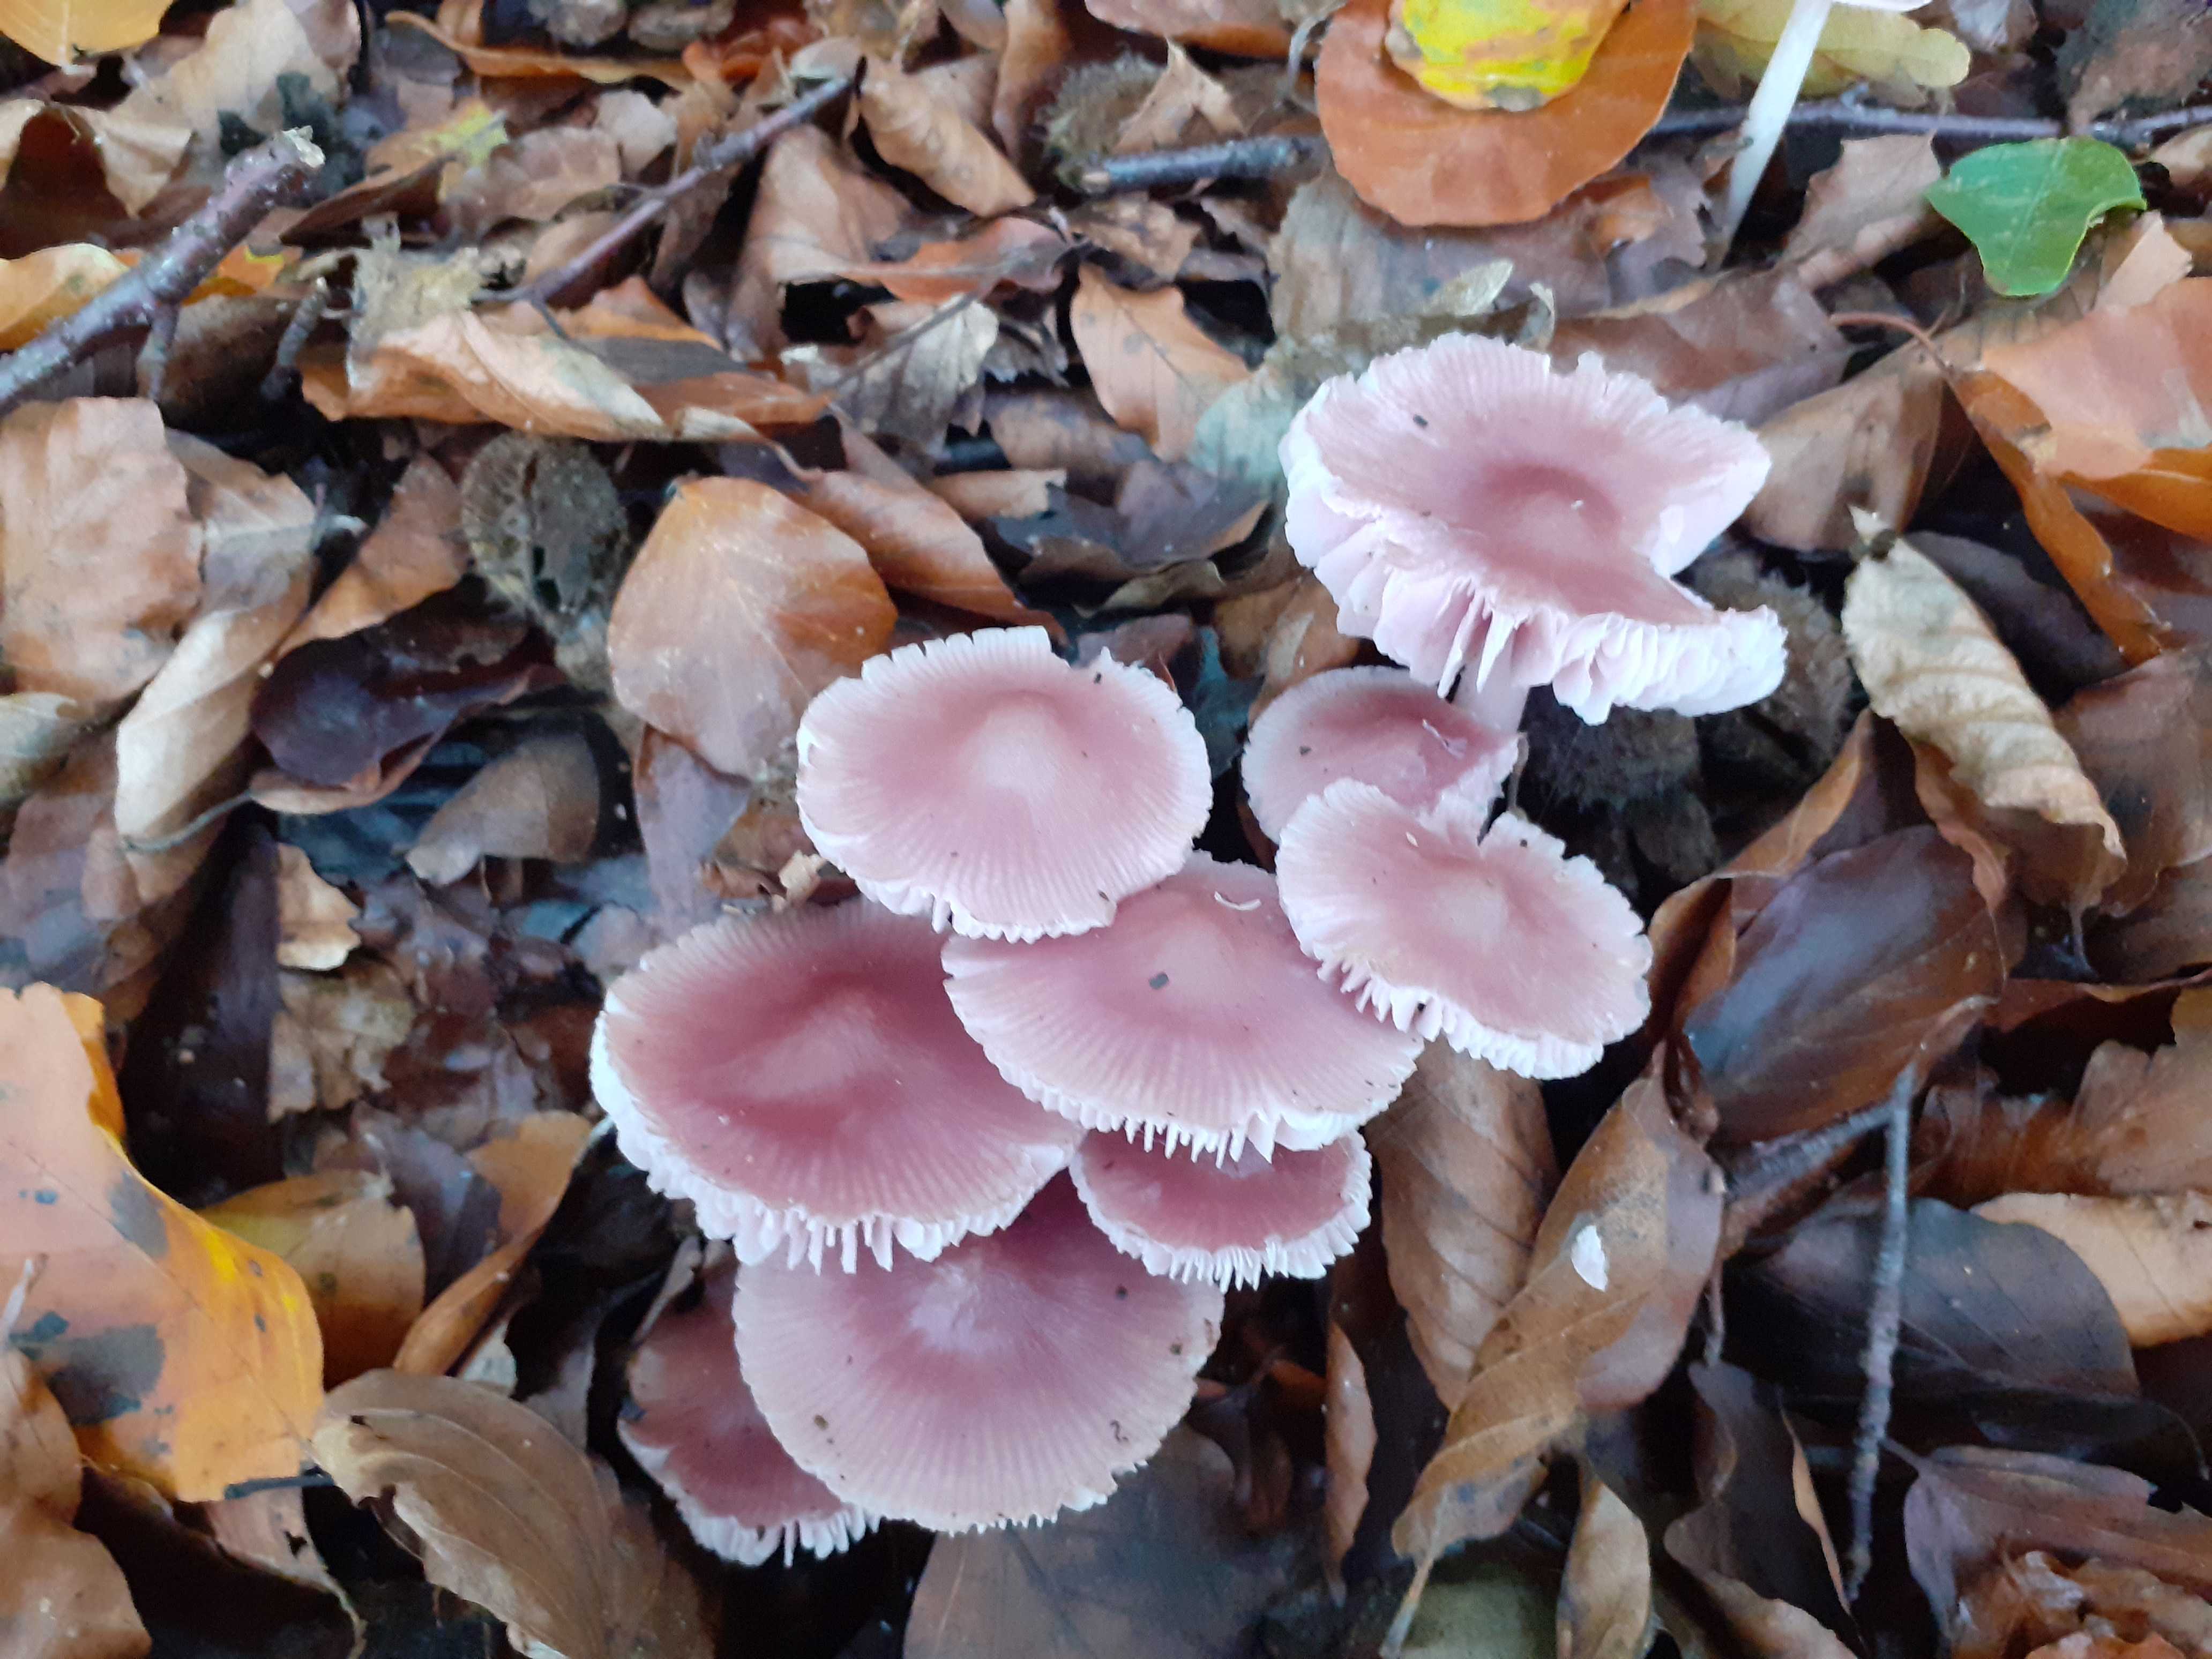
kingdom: Fungi
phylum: Basidiomycota
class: Agaricomycetes
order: Agaricales
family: Mycenaceae
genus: Mycena
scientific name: Mycena rosea
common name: rosa huesvamp
